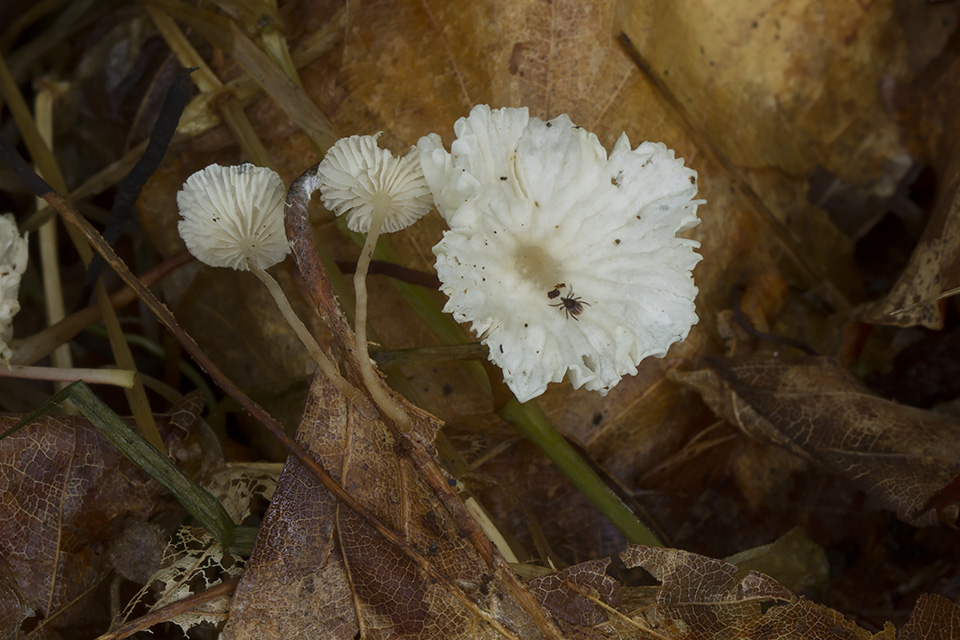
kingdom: Fungi
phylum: Basidiomycota
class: Agaricomycetes
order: Agaricales
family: Omphalotaceae
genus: Collybiopsis
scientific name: Collybiopsis vaillantii
